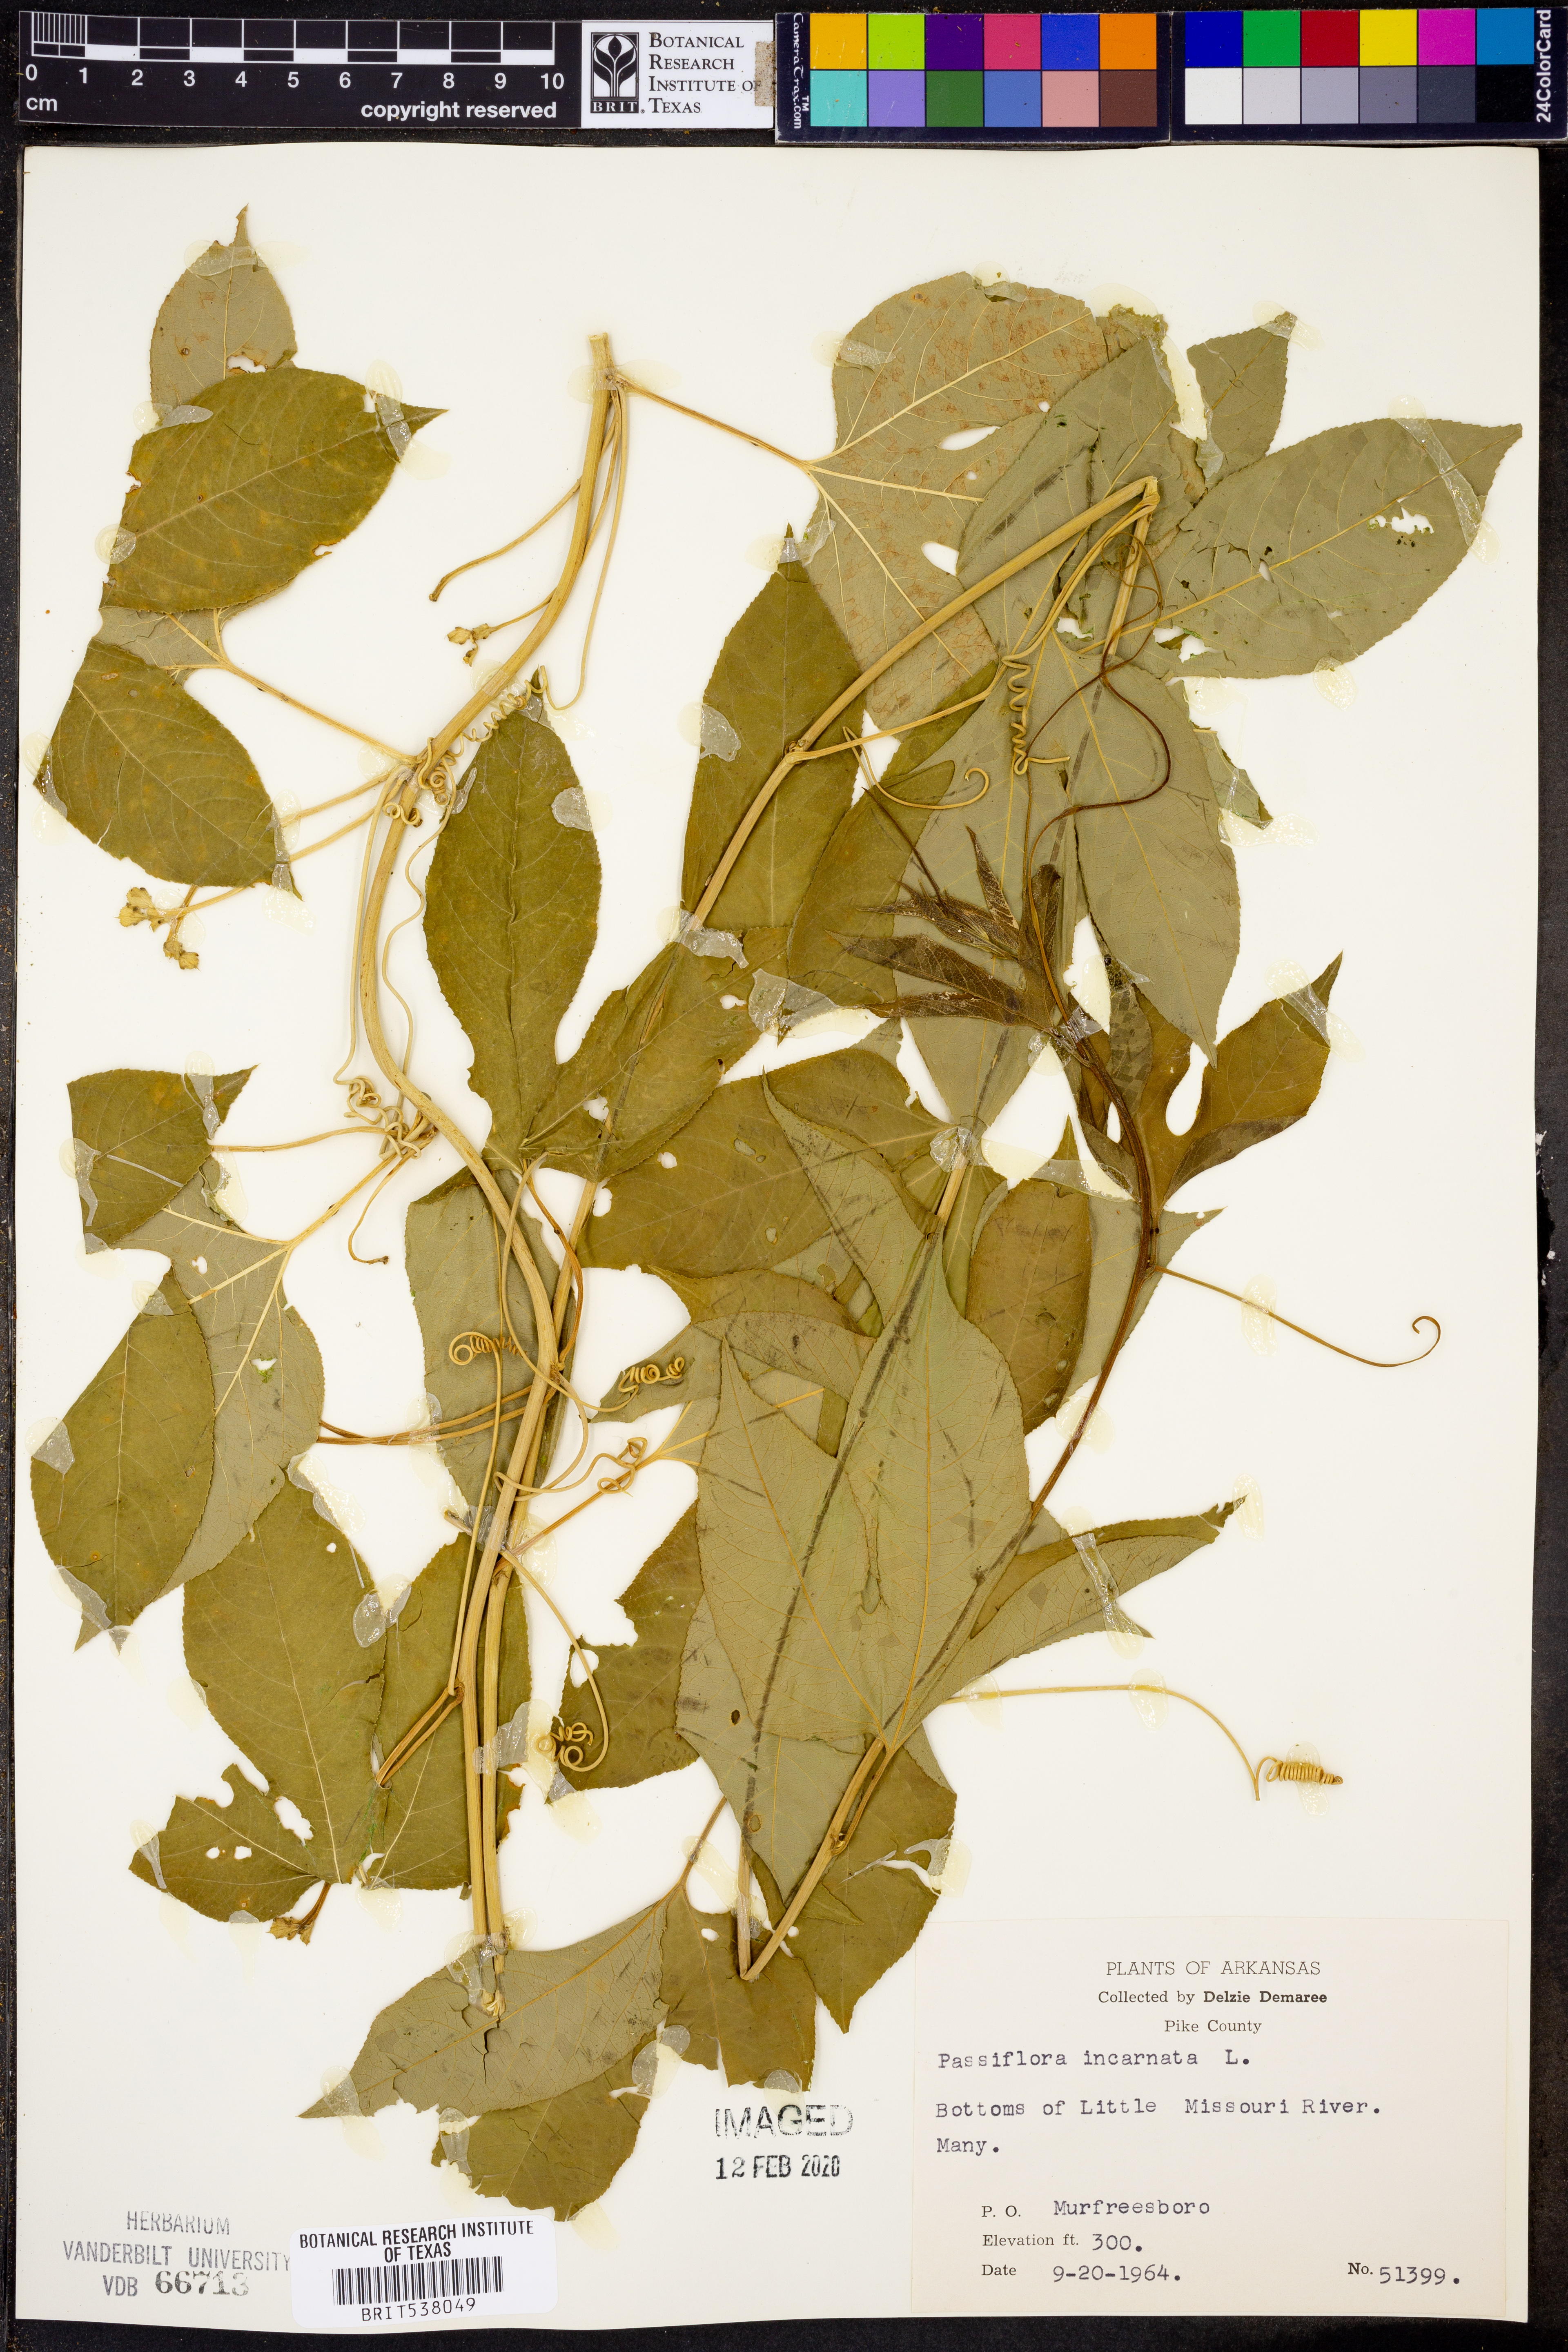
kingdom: Plantae
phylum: Tracheophyta
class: Magnoliopsida
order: Malpighiales
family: Passifloraceae
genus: Passiflora
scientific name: Passiflora incarnata
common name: Apricot-vine
